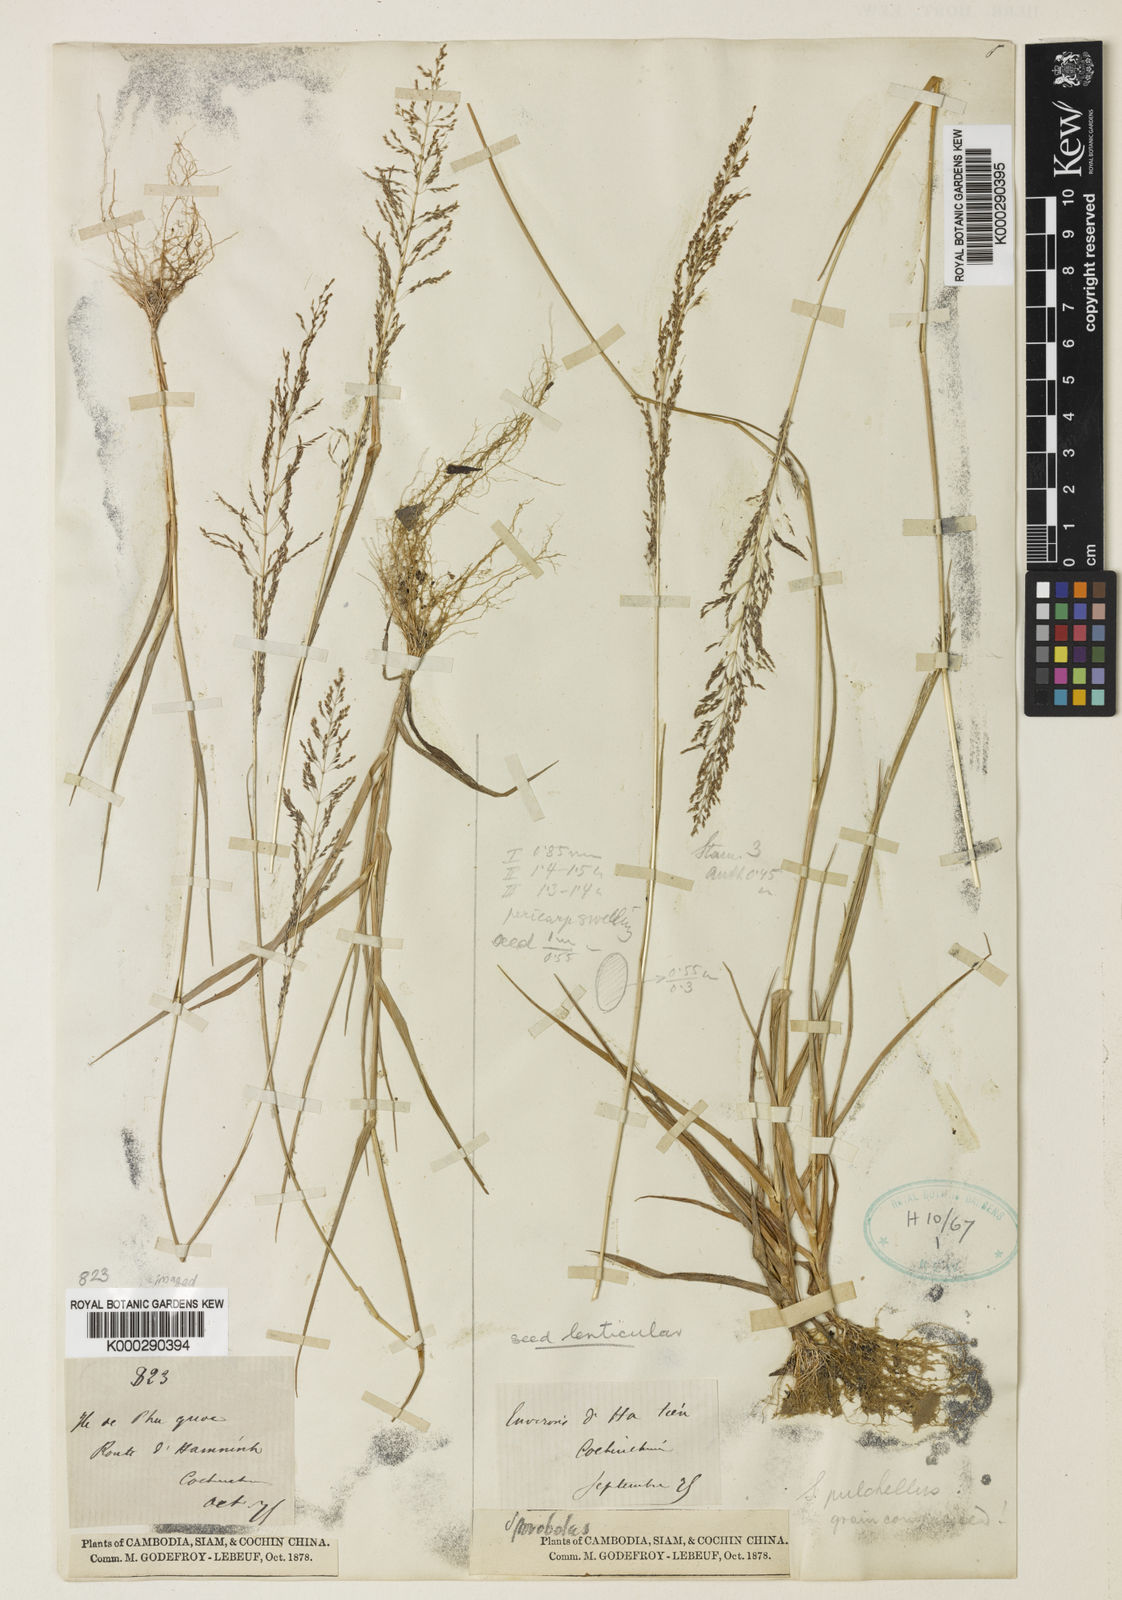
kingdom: Plantae
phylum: Tracheophyta
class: Liliopsida
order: Poales
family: Poaceae
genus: Sporobolus
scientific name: Sporobolus harmandii
